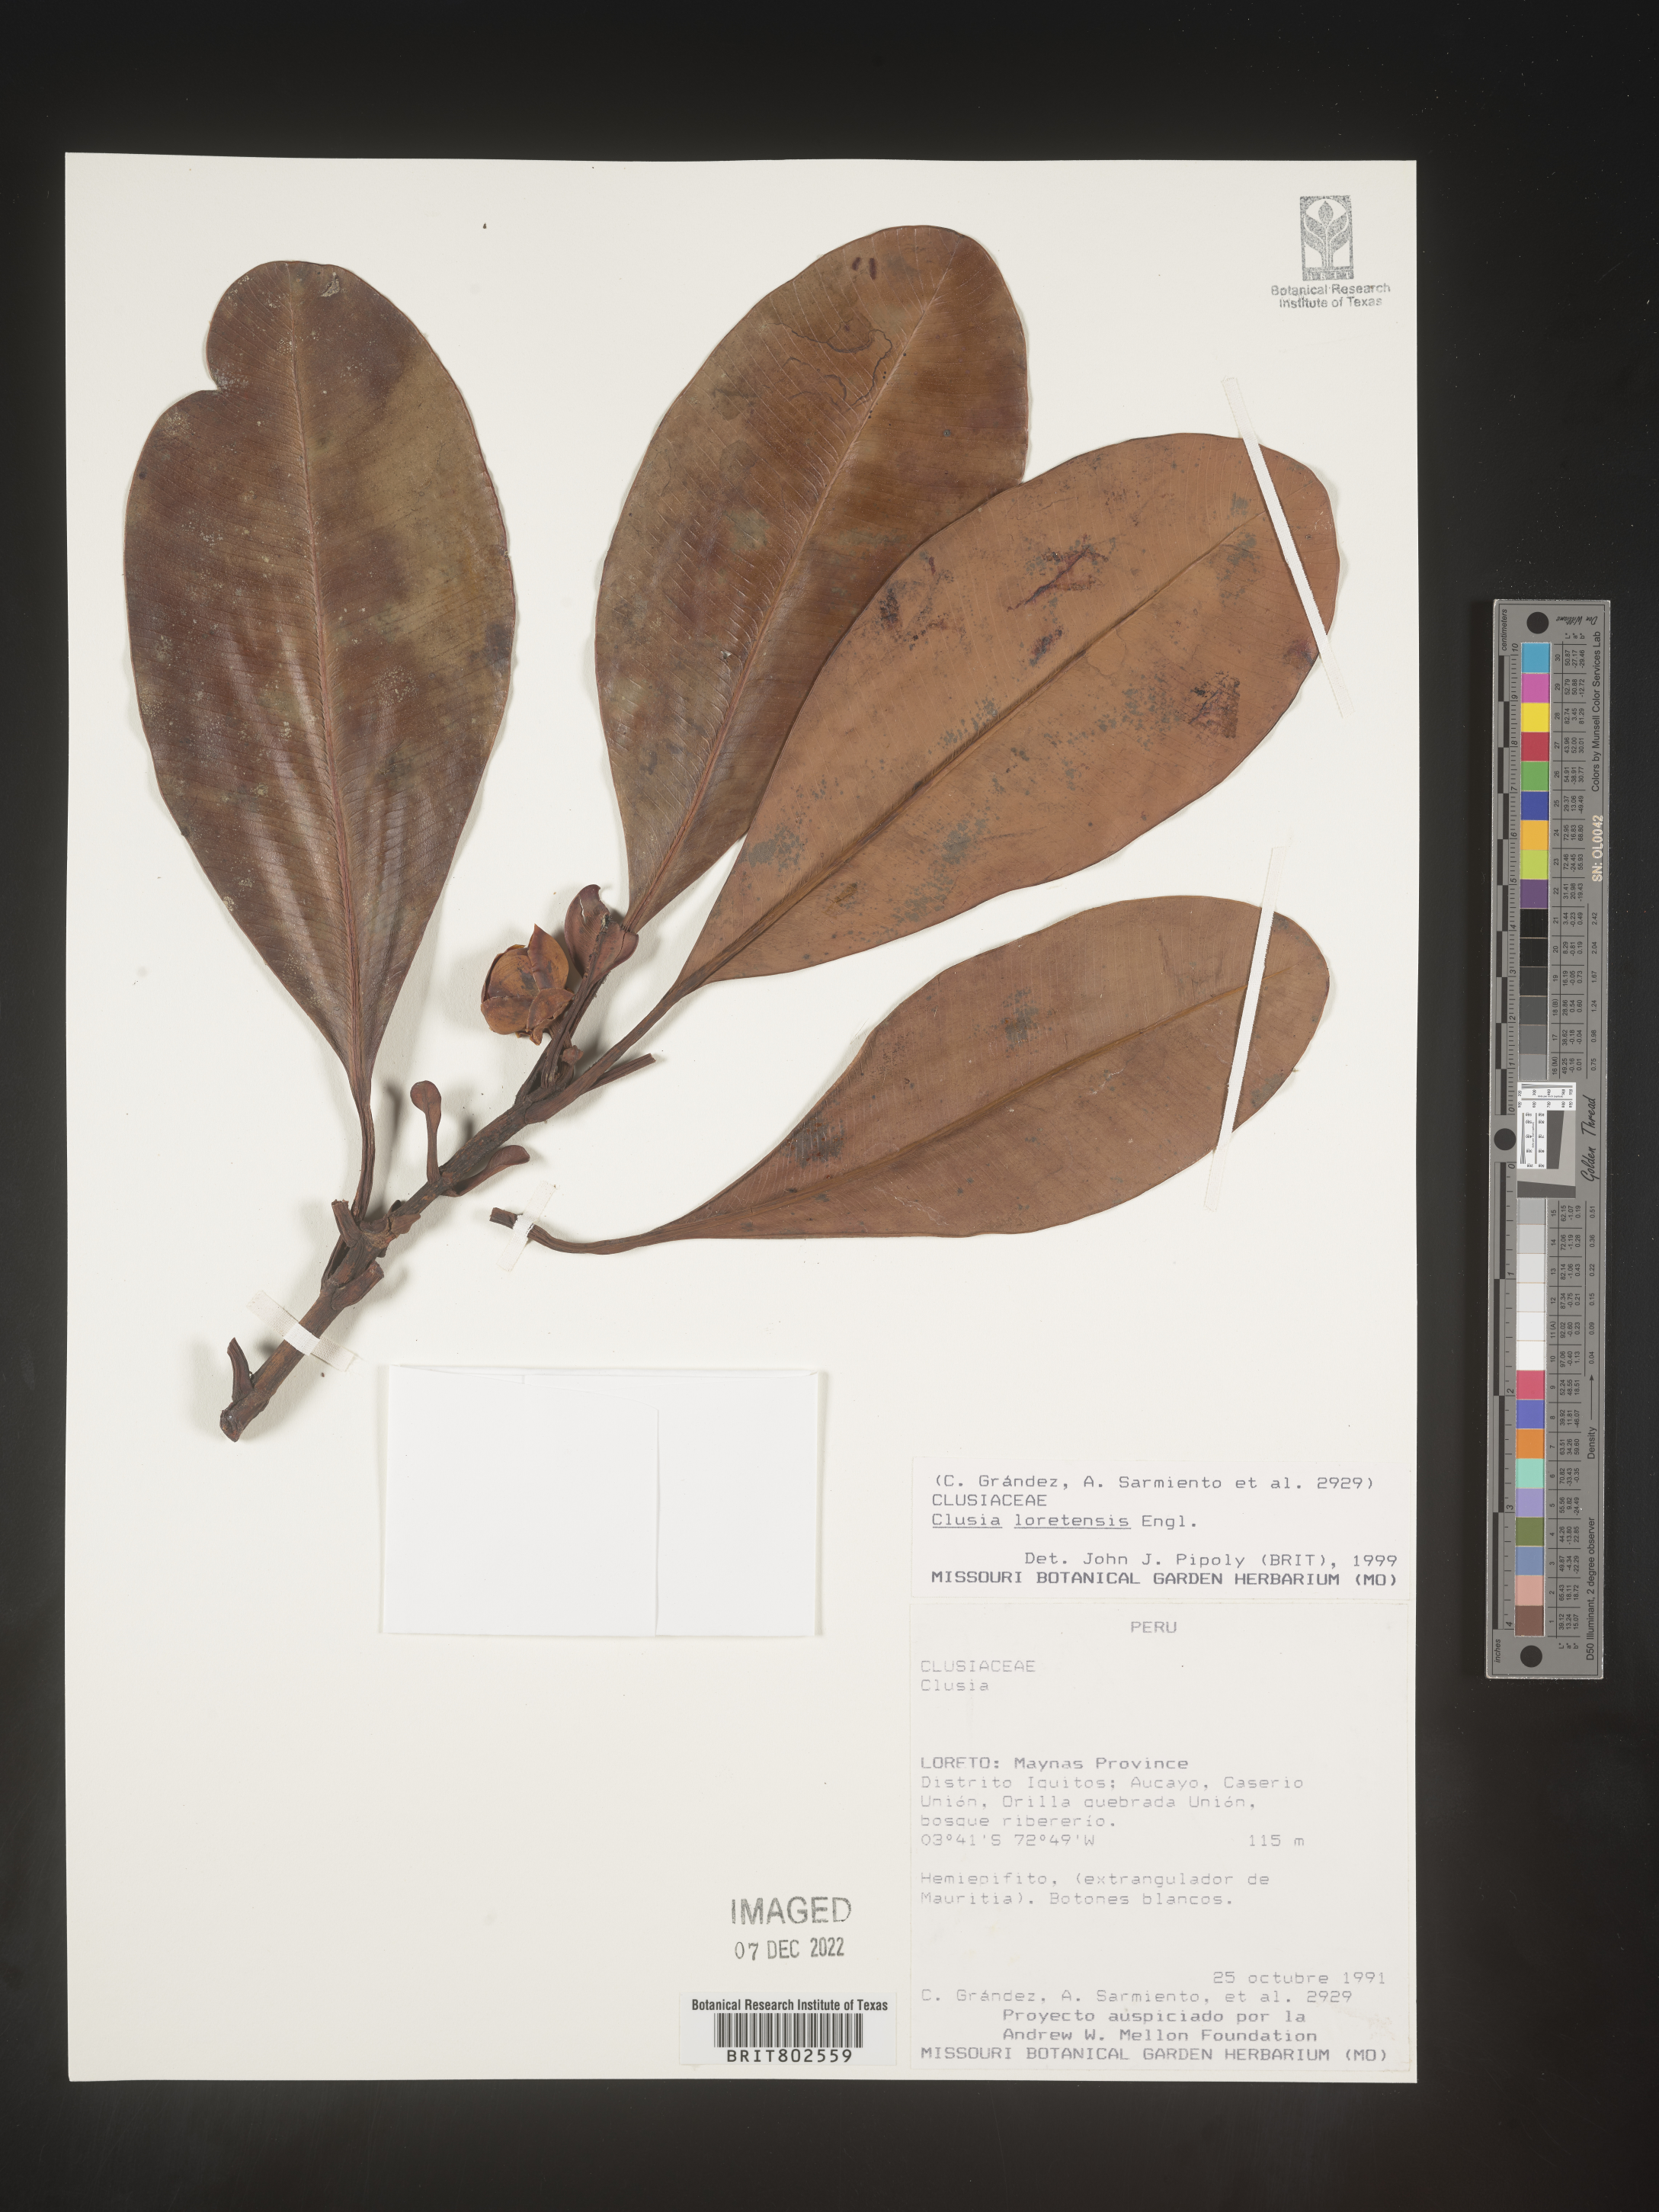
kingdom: Plantae
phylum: Tracheophyta
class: Magnoliopsida
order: Malpighiales
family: Clusiaceae
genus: Clusia
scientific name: Clusia loretensis
